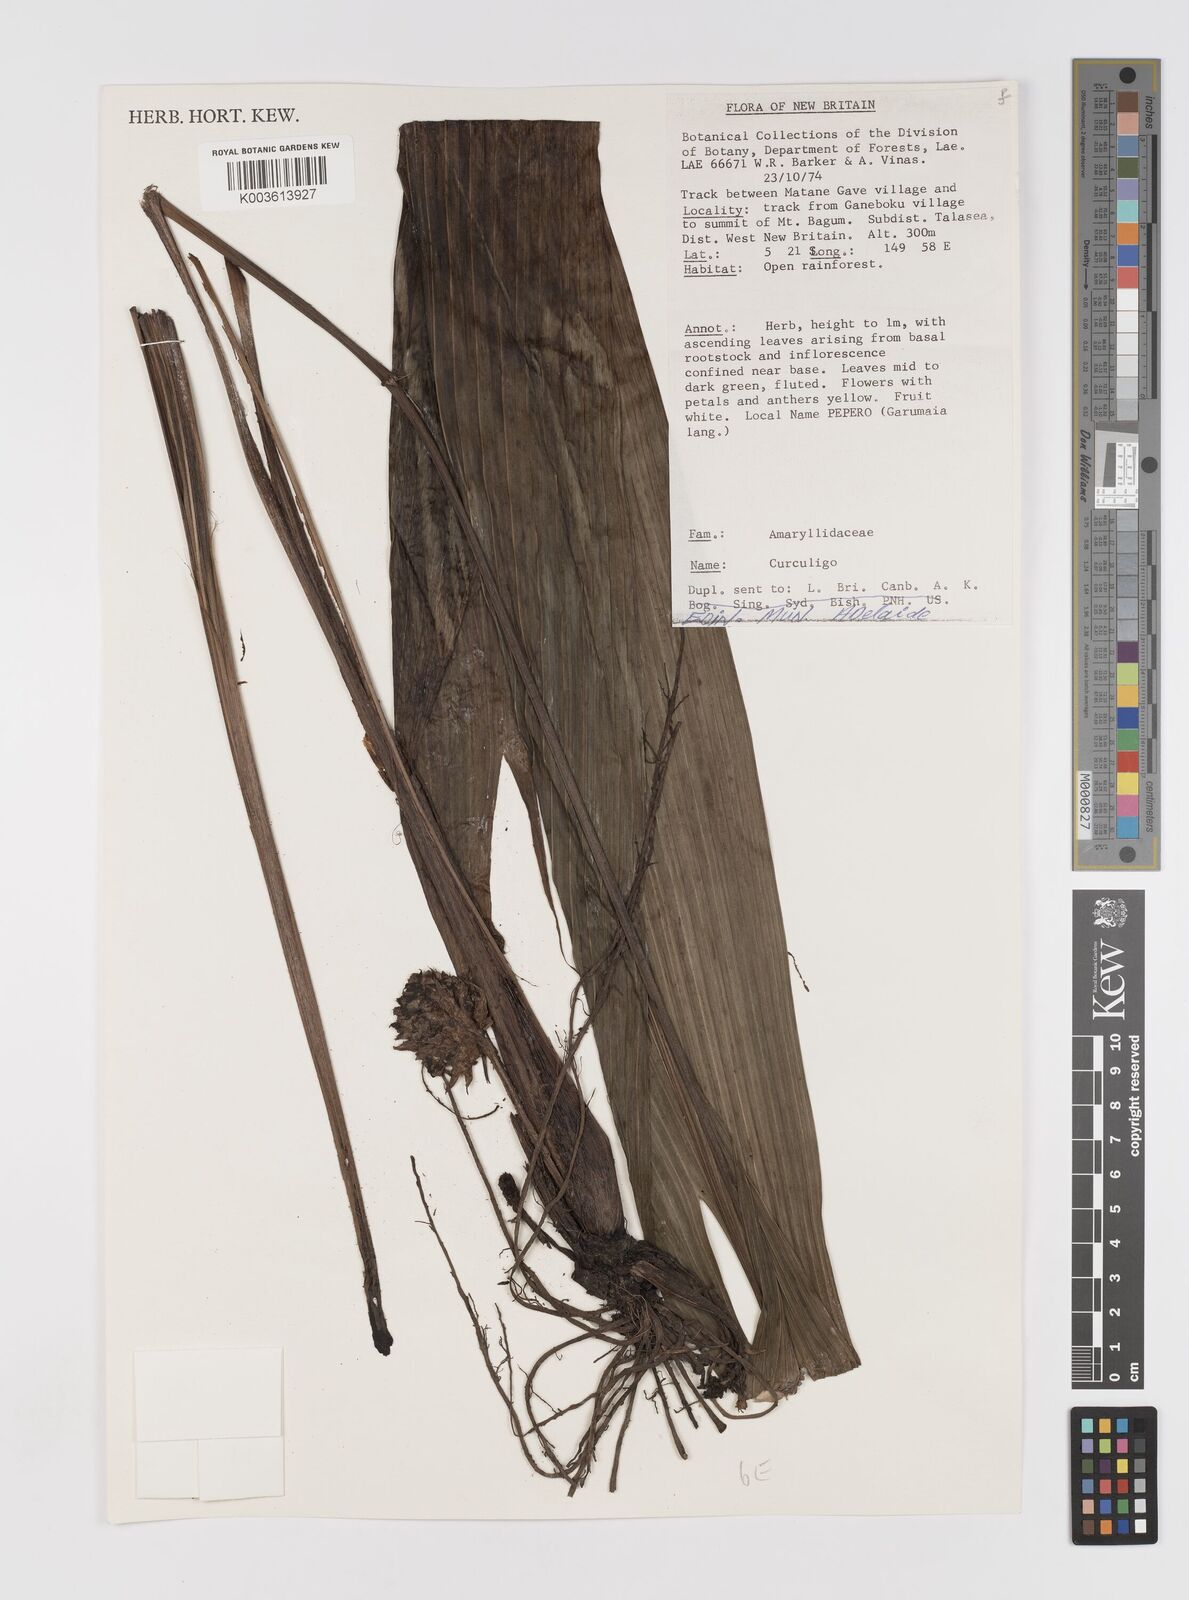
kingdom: Plantae
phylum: Tracheophyta
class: Liliopsida
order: Asparagales
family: Hypoxidaceae
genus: Curculigo
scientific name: Curculigo
